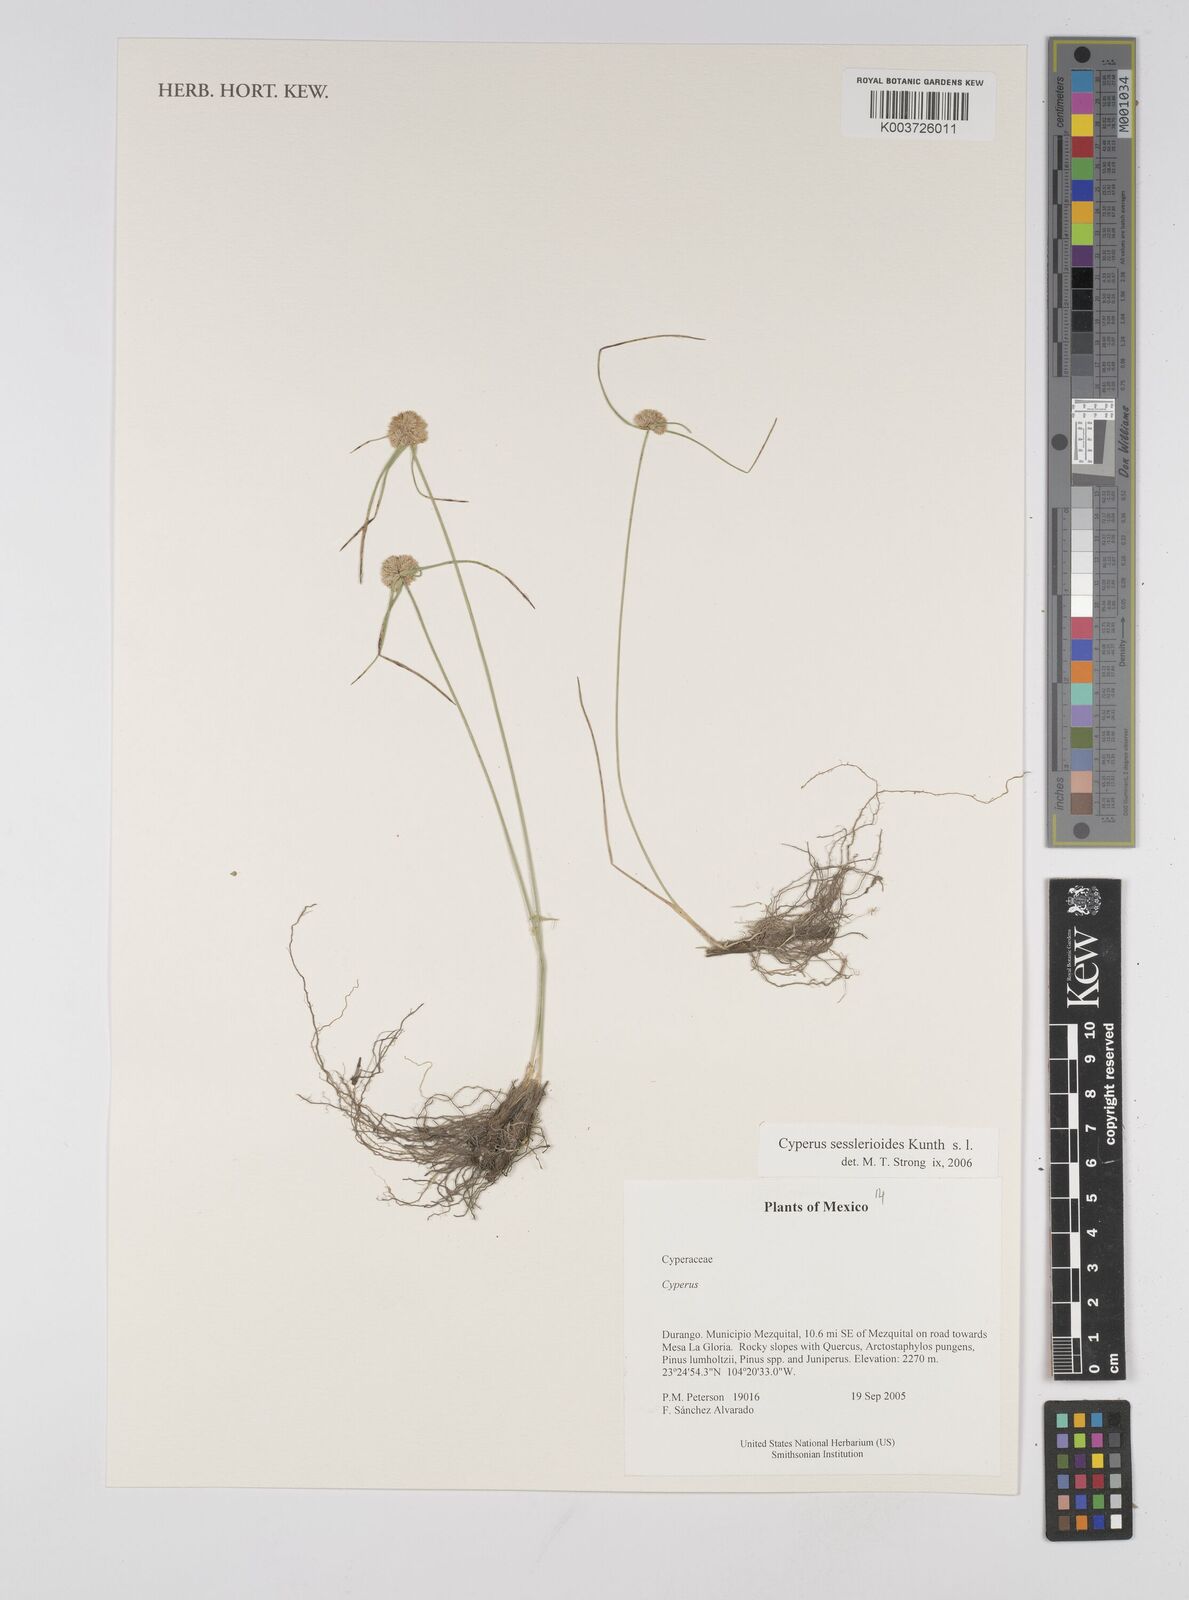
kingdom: Plantae
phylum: Tracheophyta
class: Liliopsida
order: Poales
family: Cyperaceae
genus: Cyperus
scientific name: Cyperus seslerioides
